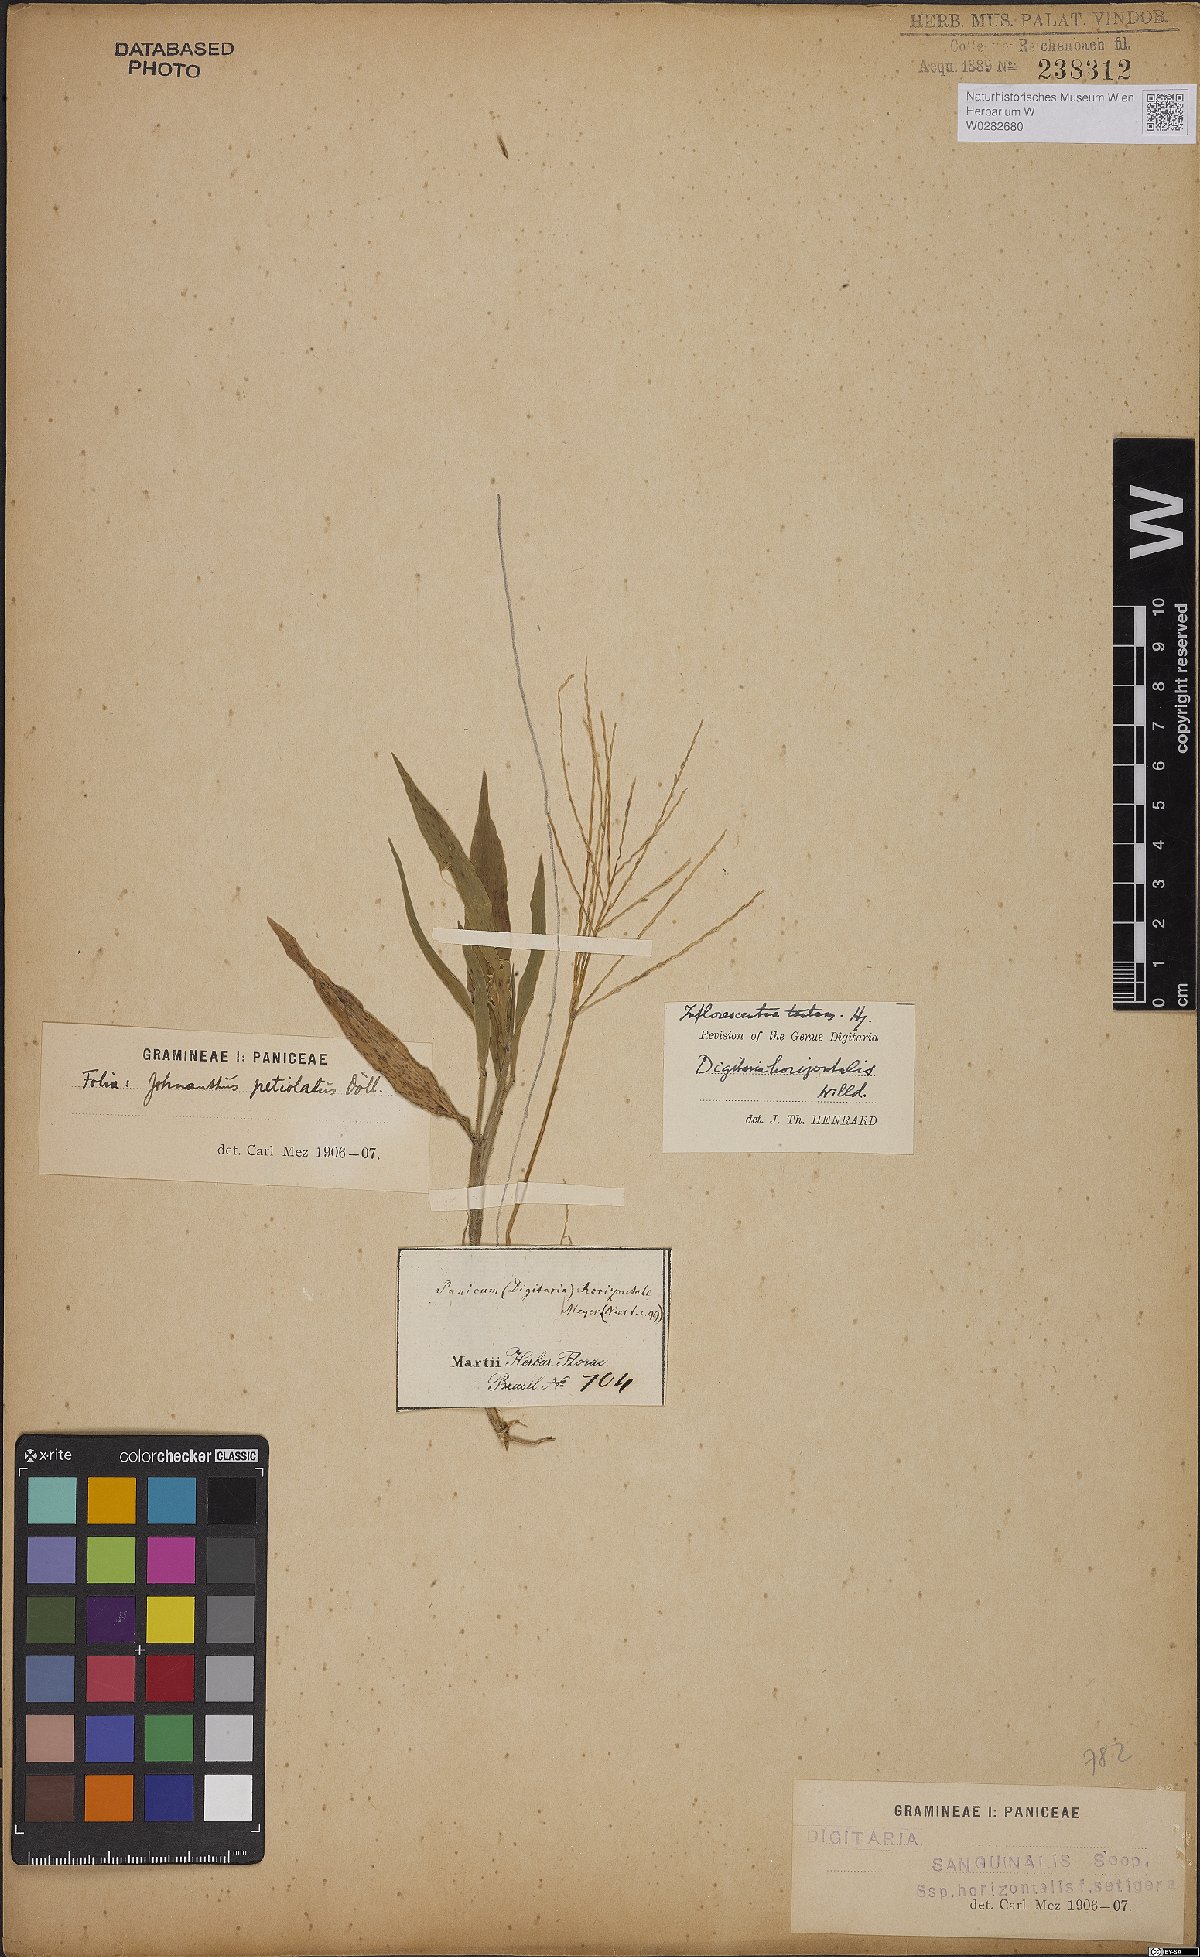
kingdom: Plantae
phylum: Tracheophyta
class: Liliopsida
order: Poales
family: Poaceae
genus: Digitaria
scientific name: Digitaria horizontalis
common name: Jamaican crabgrass
